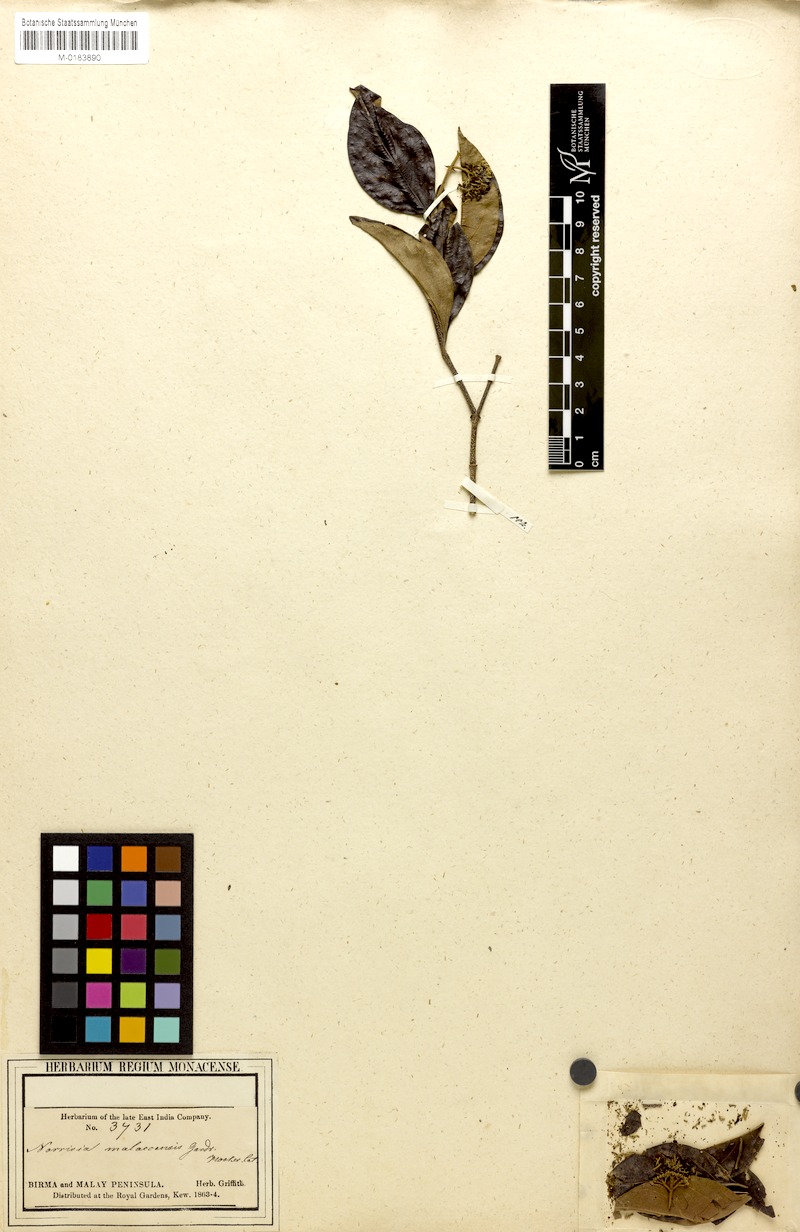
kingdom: Plantae
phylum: Tracheophyta
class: Magnoliopsida
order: Gentianales
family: Loganiaceae
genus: Norrisia
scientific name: Norrisia malaccensis
